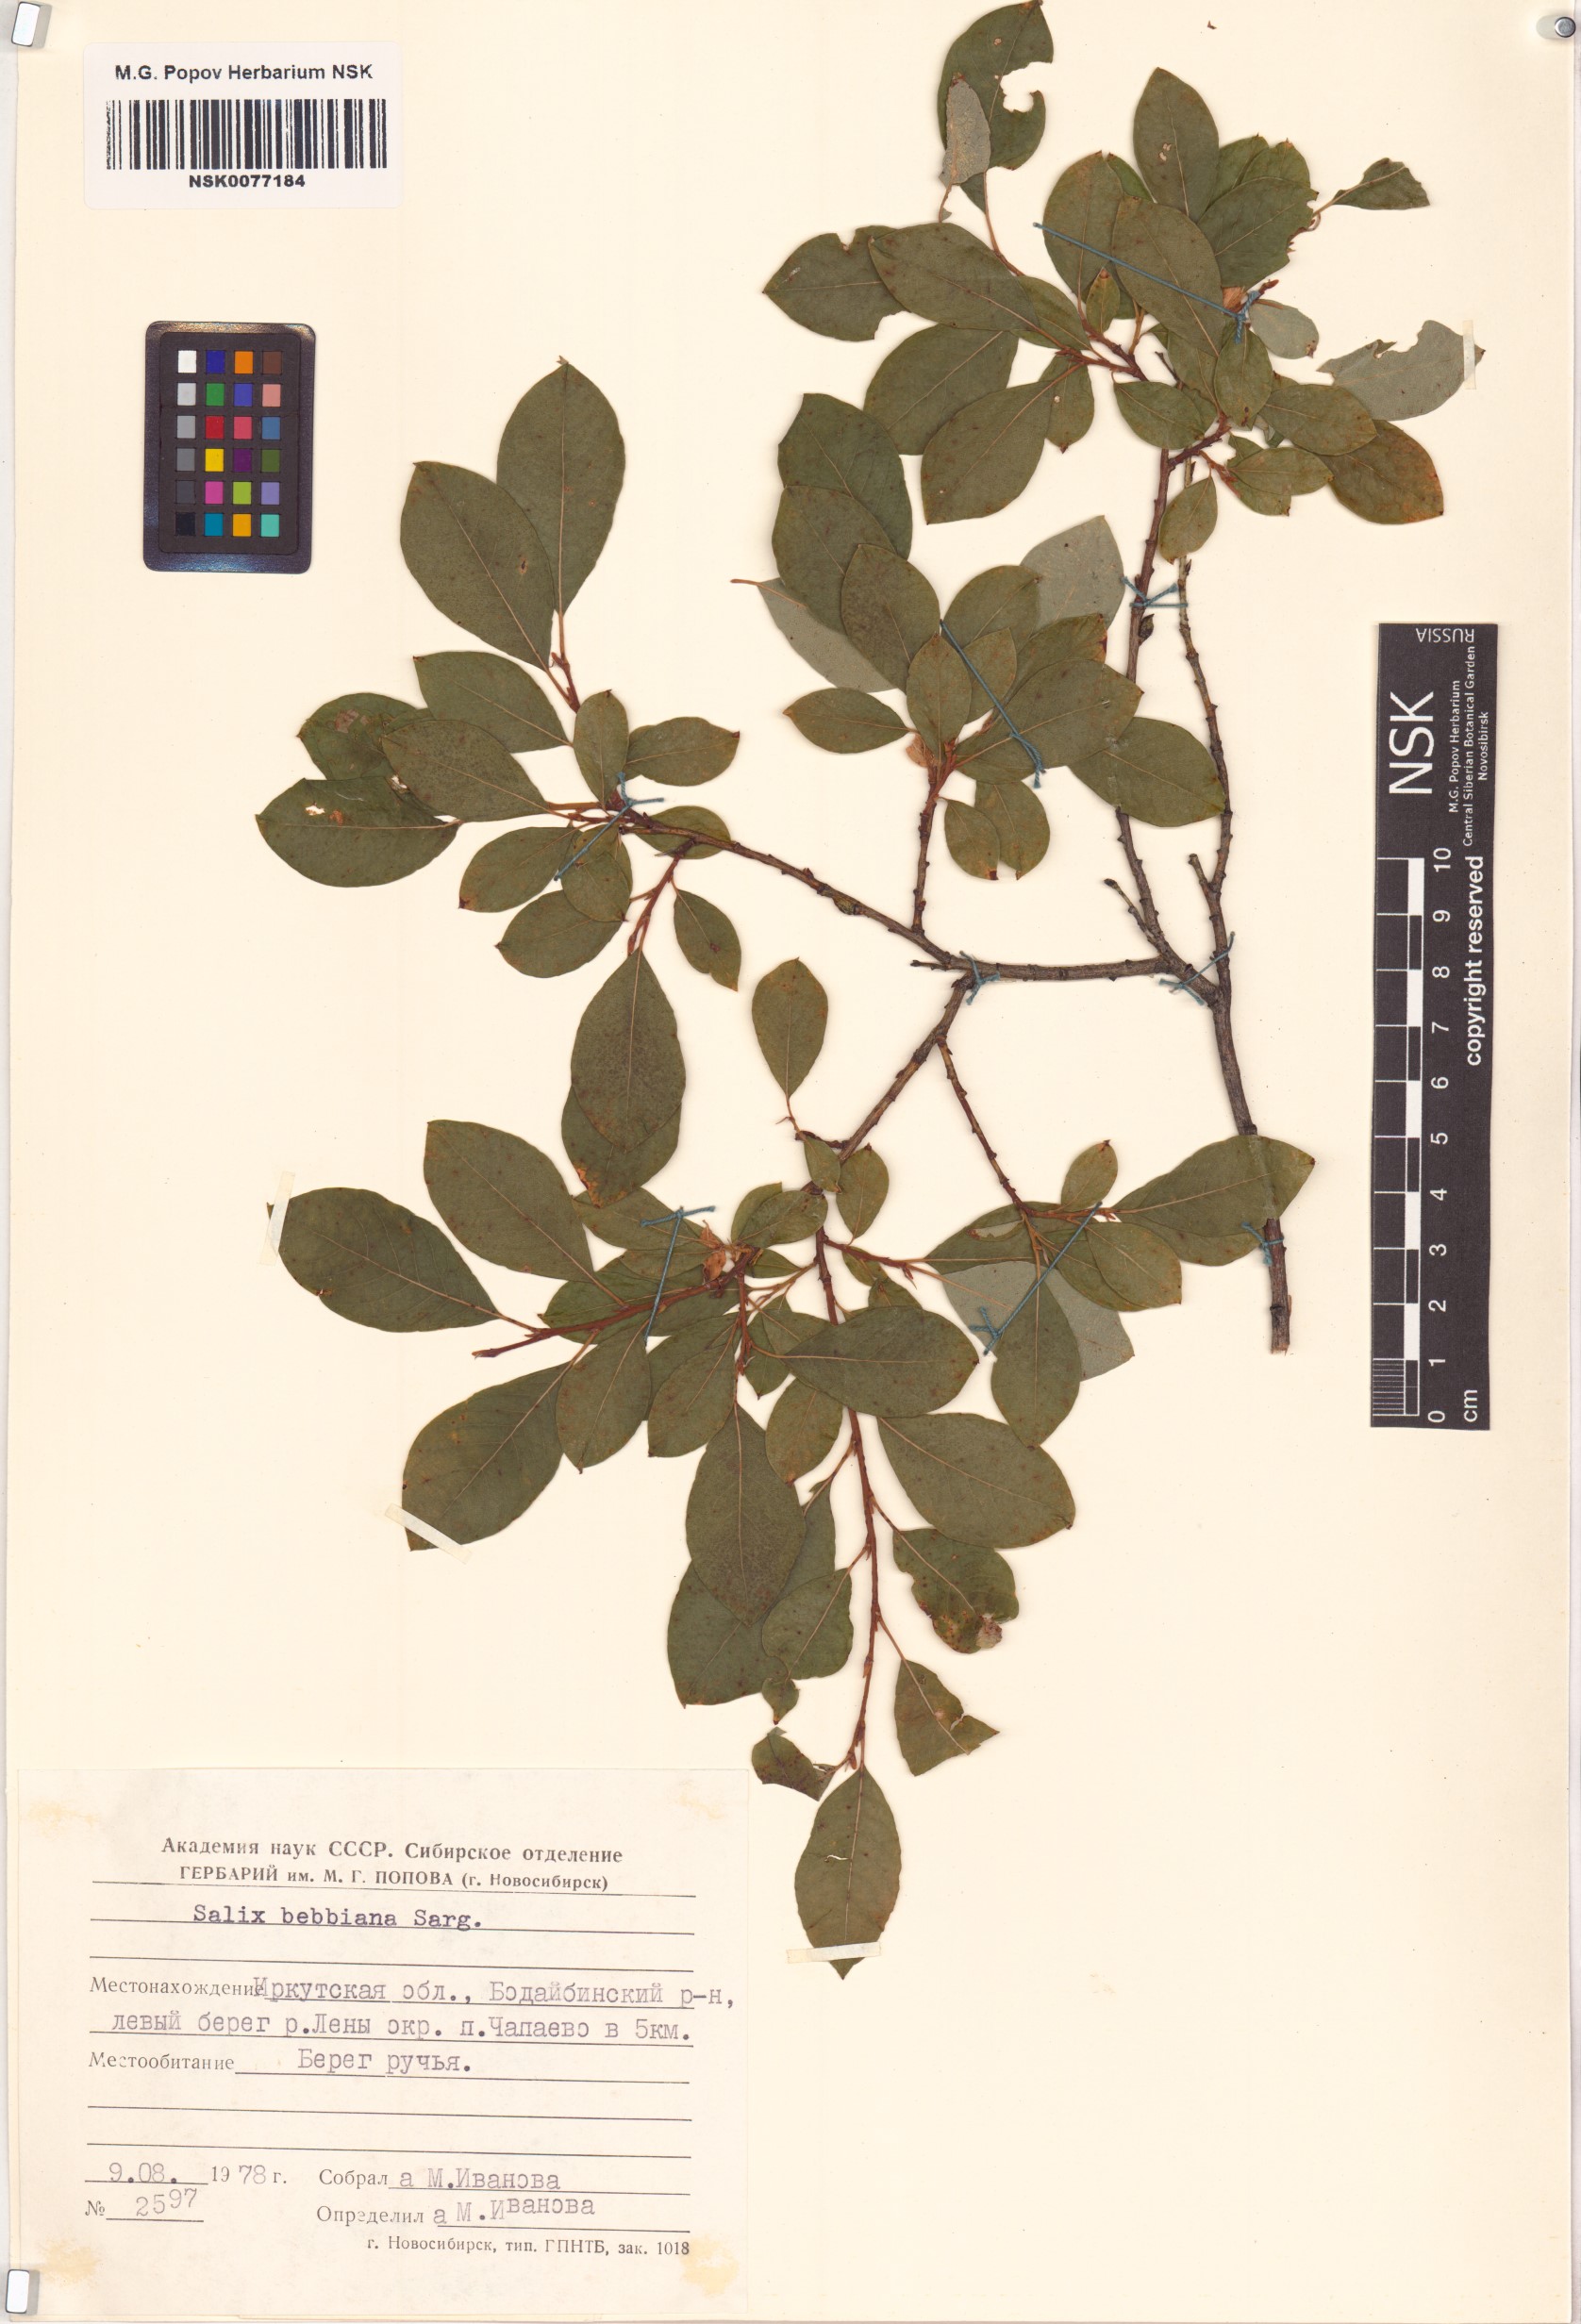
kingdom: Plantae
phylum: Tracheophyta
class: Magnoliopsida
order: Malpighiales
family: Salicaceae
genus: Salix
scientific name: Salix bebbiana
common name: Bebb's willow
